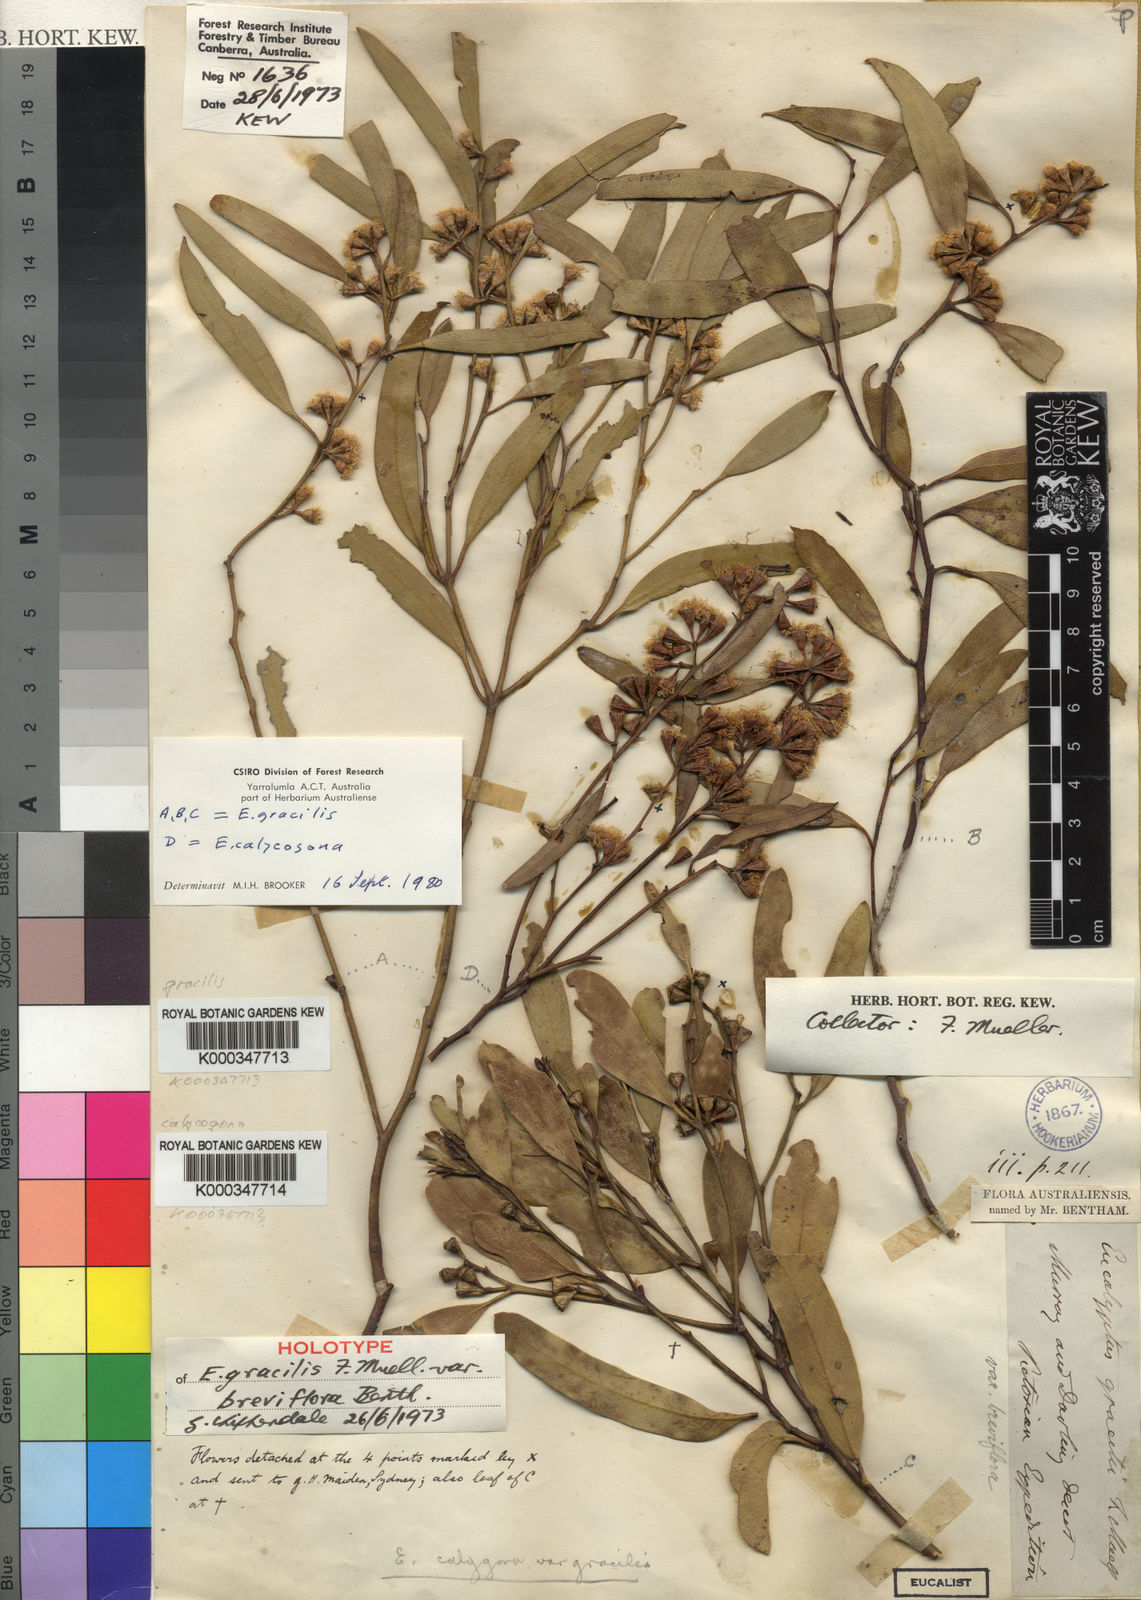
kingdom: Plantae
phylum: Tracheophyta
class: Magnoliopsida
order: Myrtales
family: Myrtaceae
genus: Eucalyptus
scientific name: Eucalyptus gracilis
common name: White mallee
